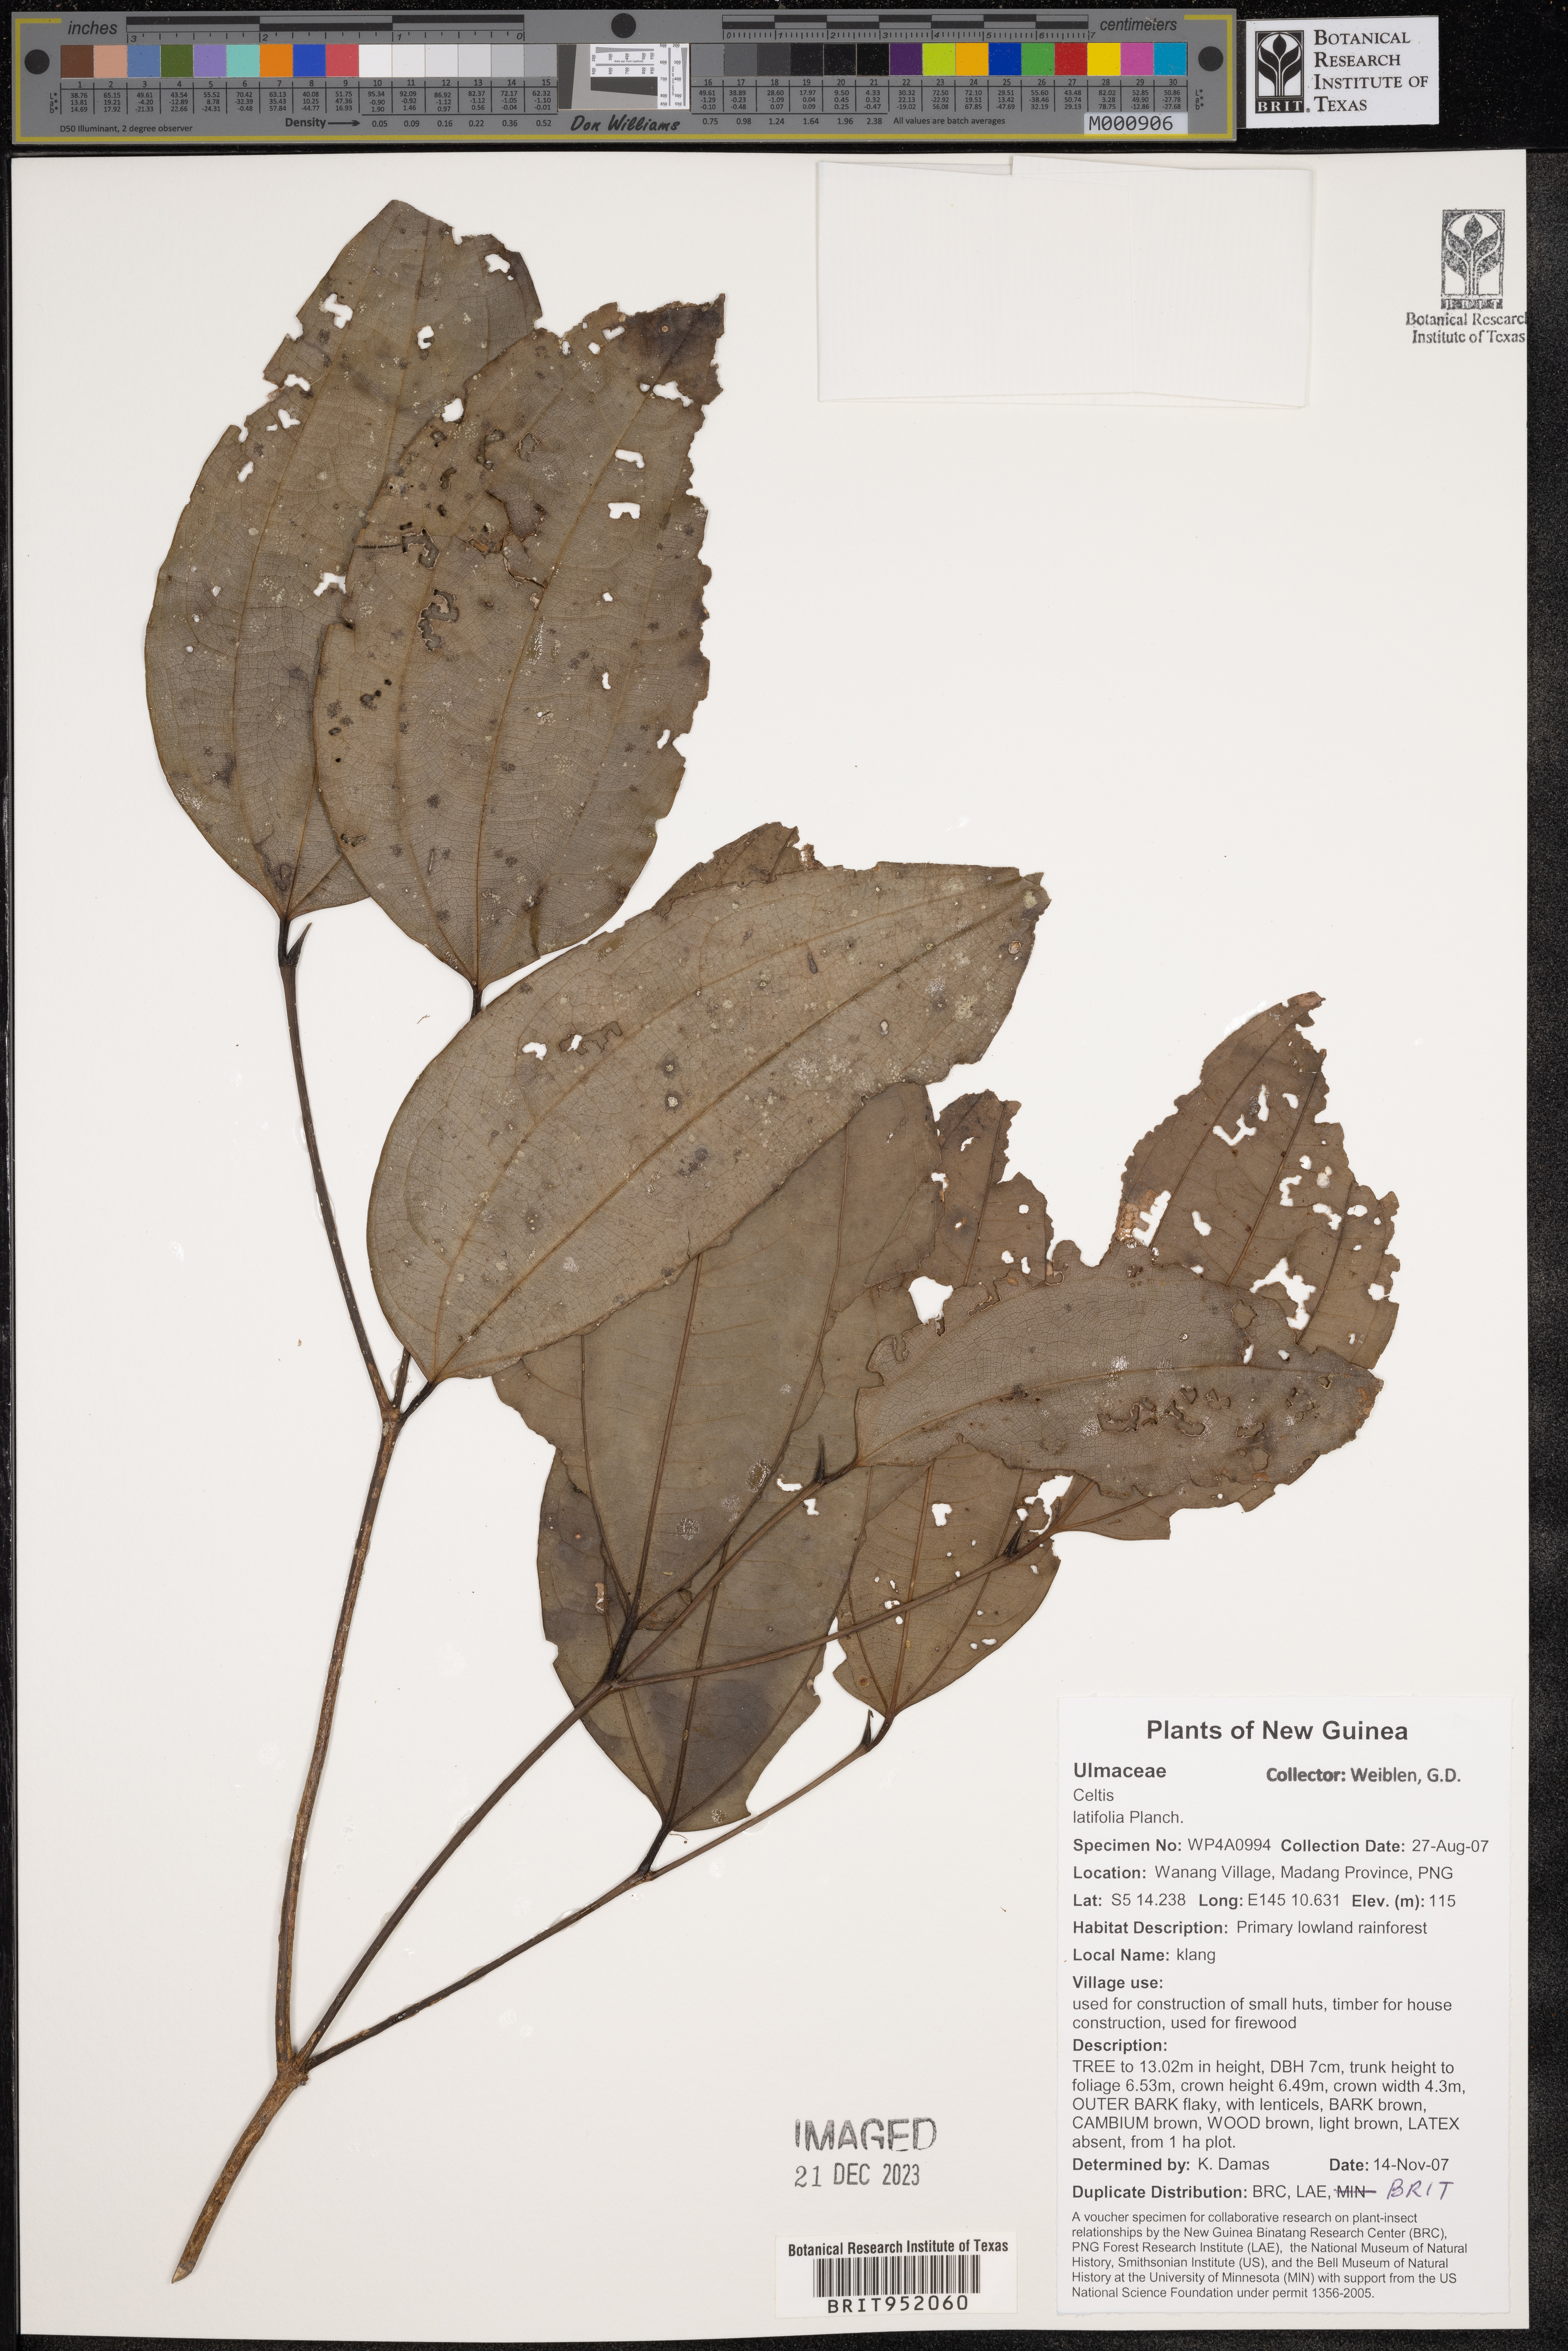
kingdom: Plantae
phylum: Tracheophyta
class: Magnoliopsida
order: Rosales
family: Cannabaceae
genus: Celtis
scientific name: Celtis
